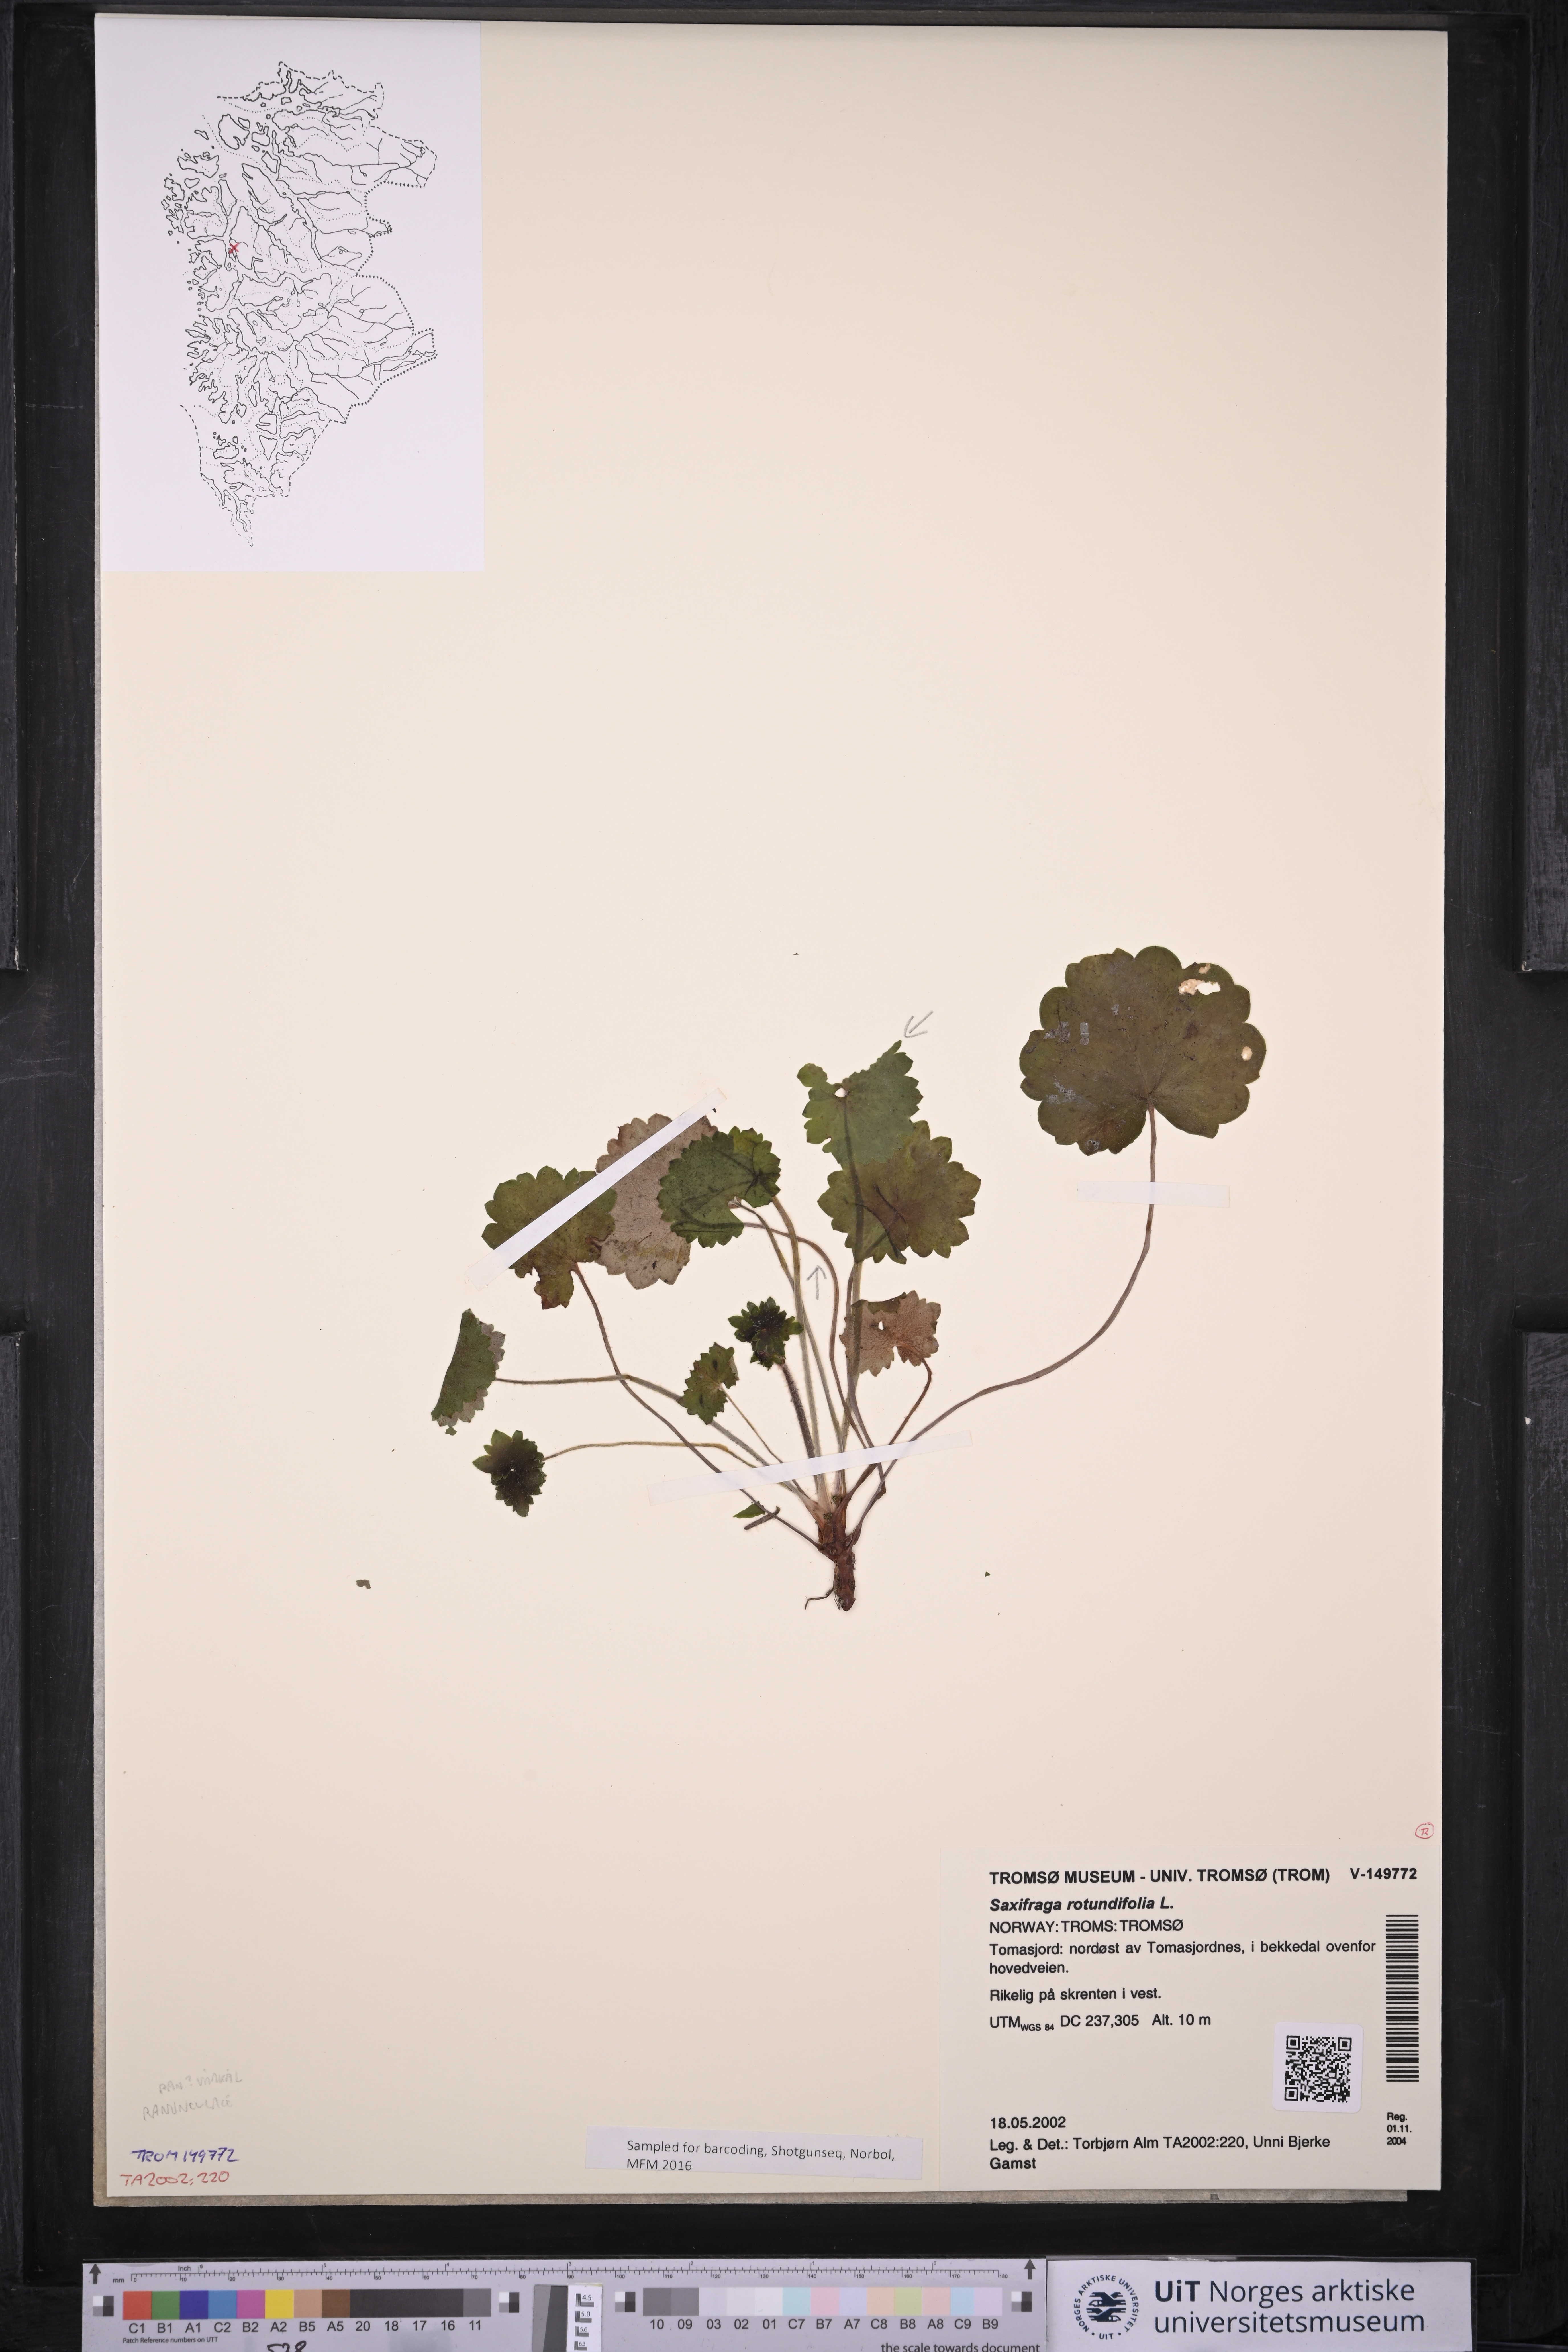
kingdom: Plantae
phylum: Tracheophyta
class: Magnoliopsida
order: Saxifragales
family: Saxifragaceae
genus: Saxifraga
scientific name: Saxifraga rotundifolia
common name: Round-leaved saxifrage
